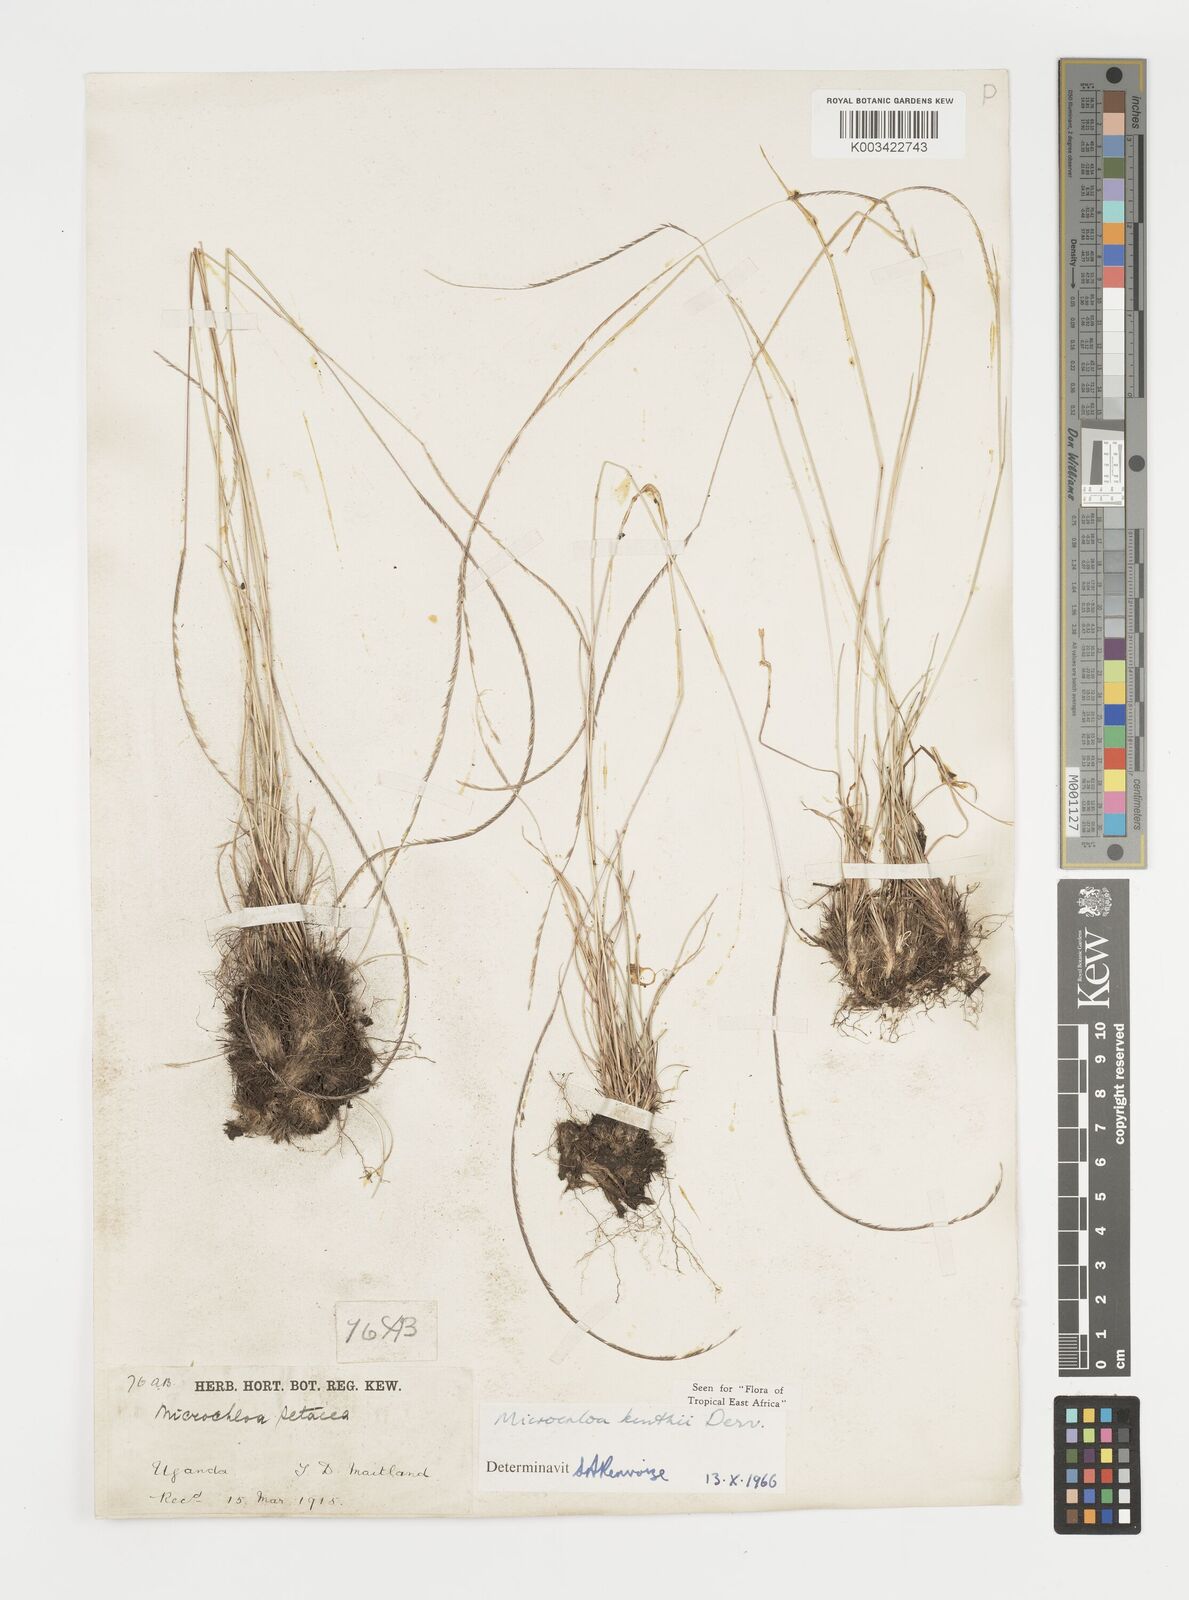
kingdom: Plantae
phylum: Tracheophyta
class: Liliopsida
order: Poales
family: Poaceae
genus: Microchloa
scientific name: Microchloa kunthii
